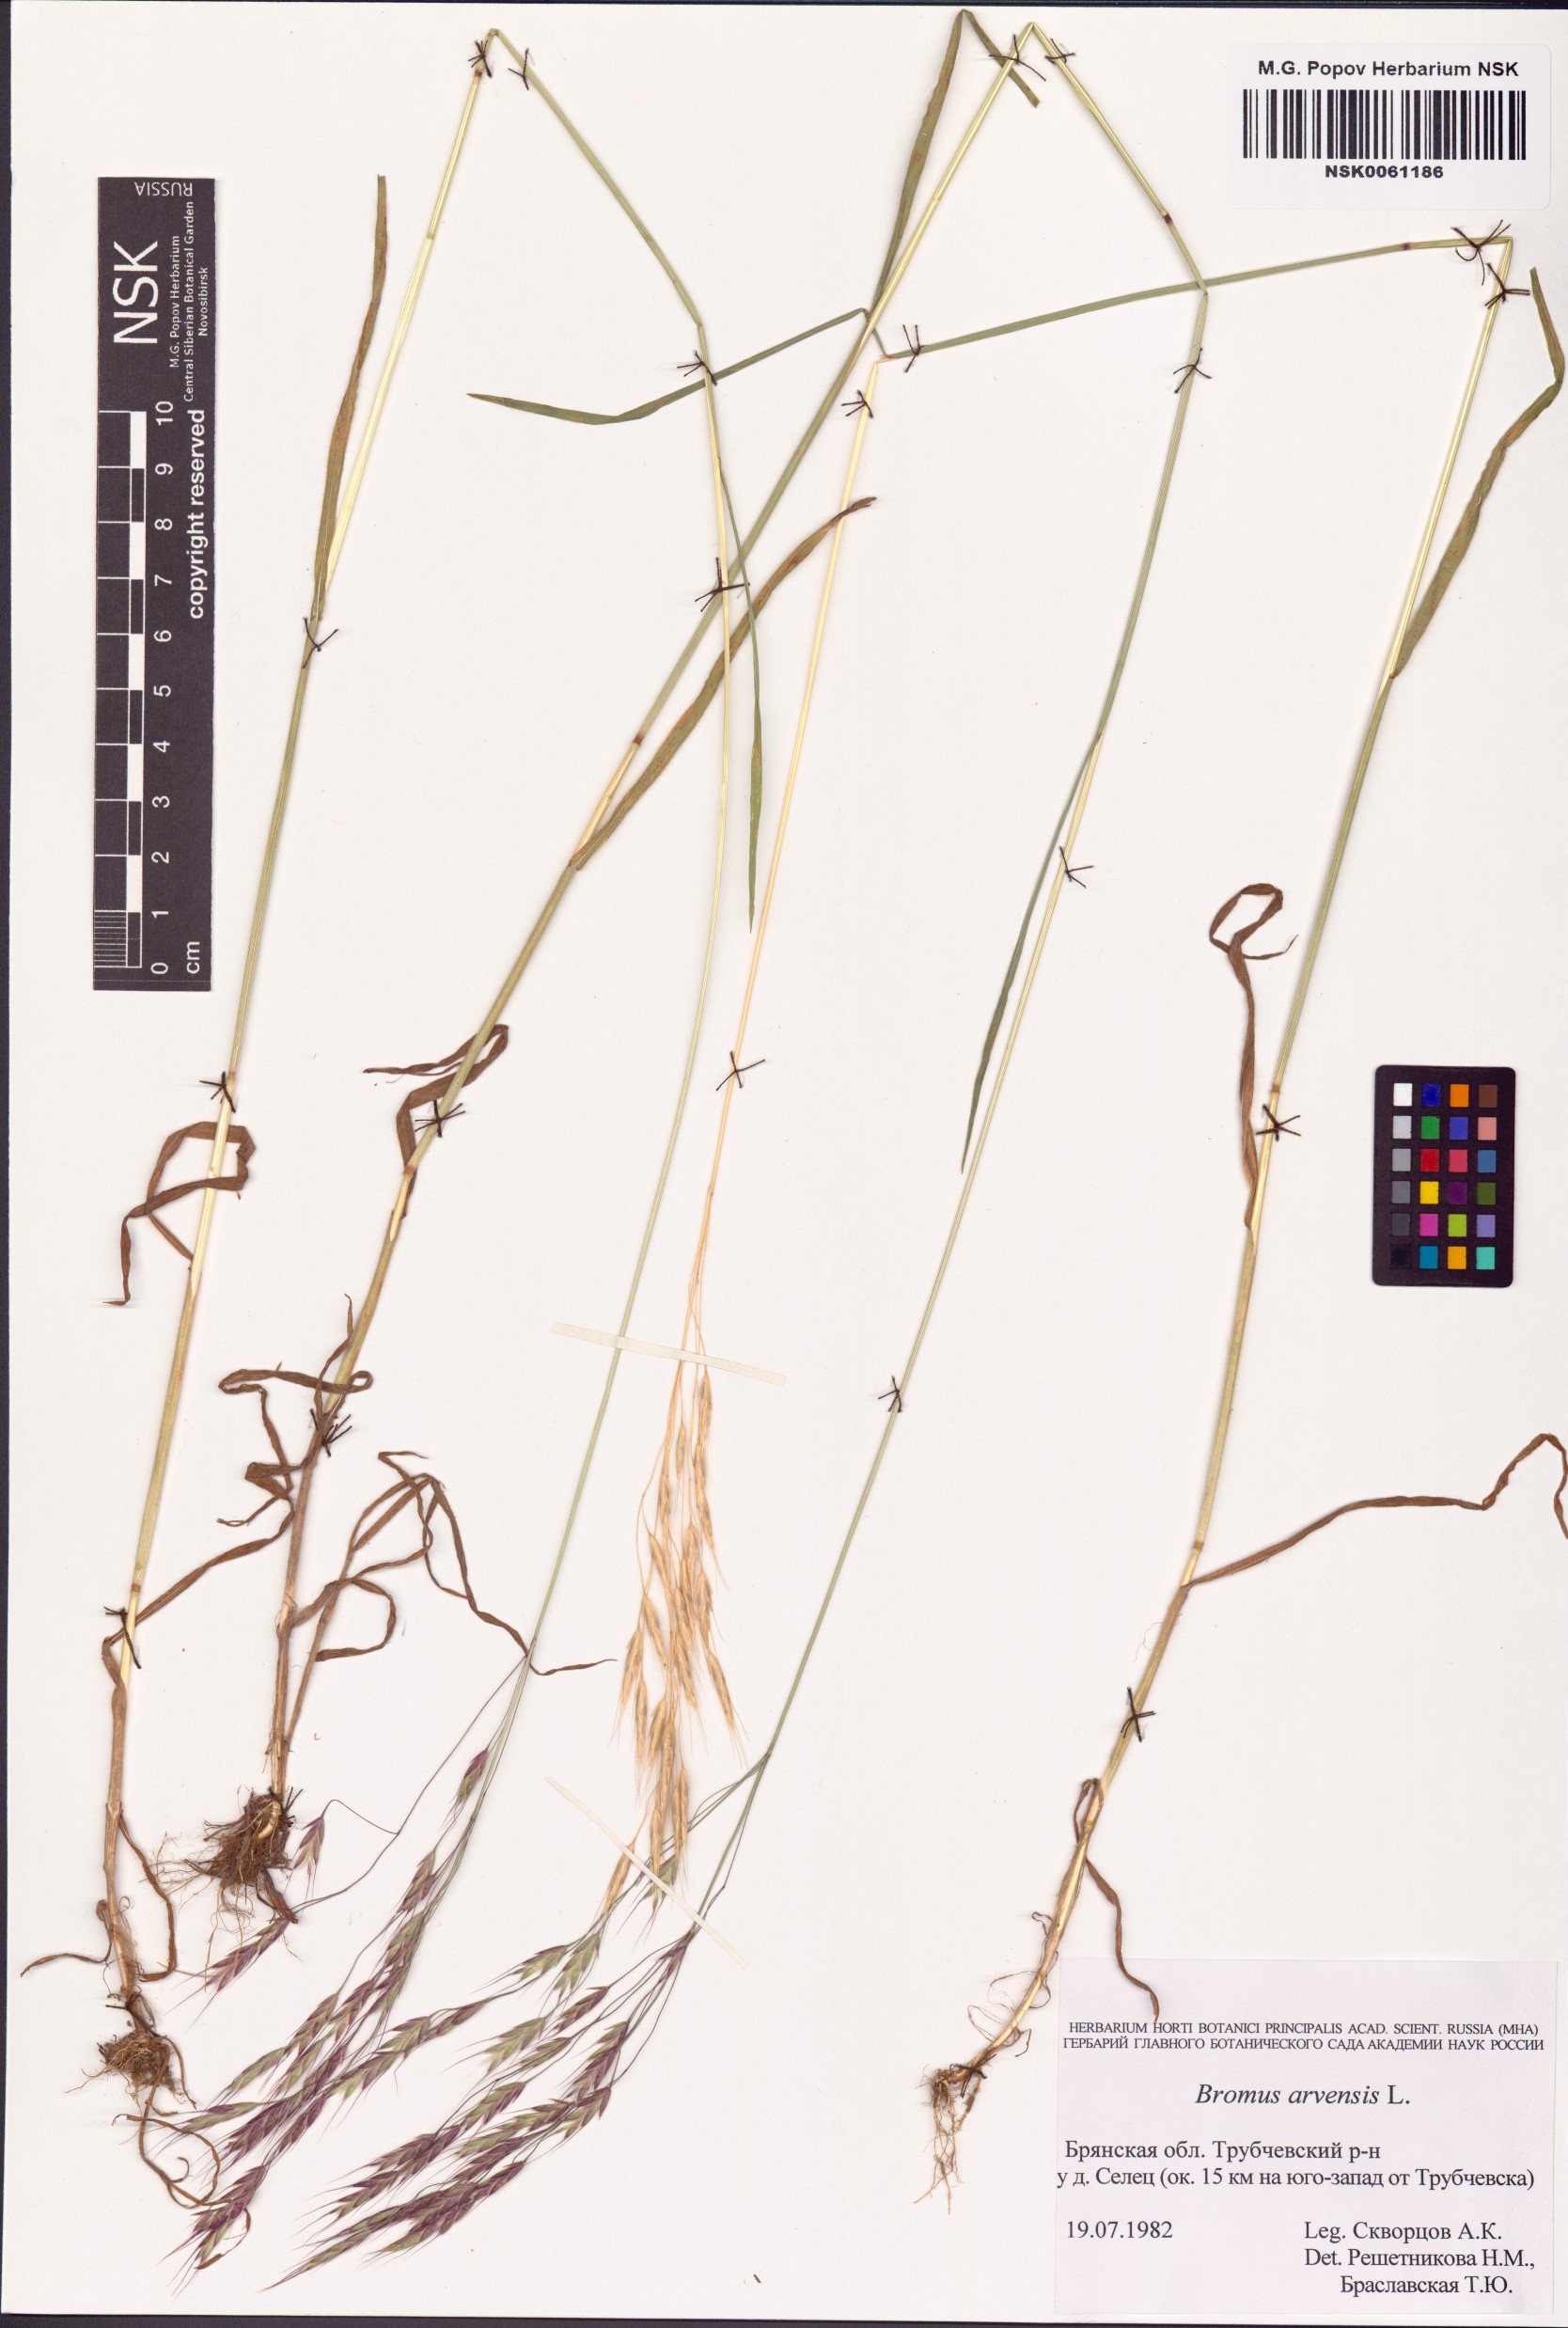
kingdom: Plantae
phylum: Tracheophyta
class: Liliopsida
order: Poales
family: Poaceae
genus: Bromus
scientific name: Bromus arvensis
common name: Field brome
